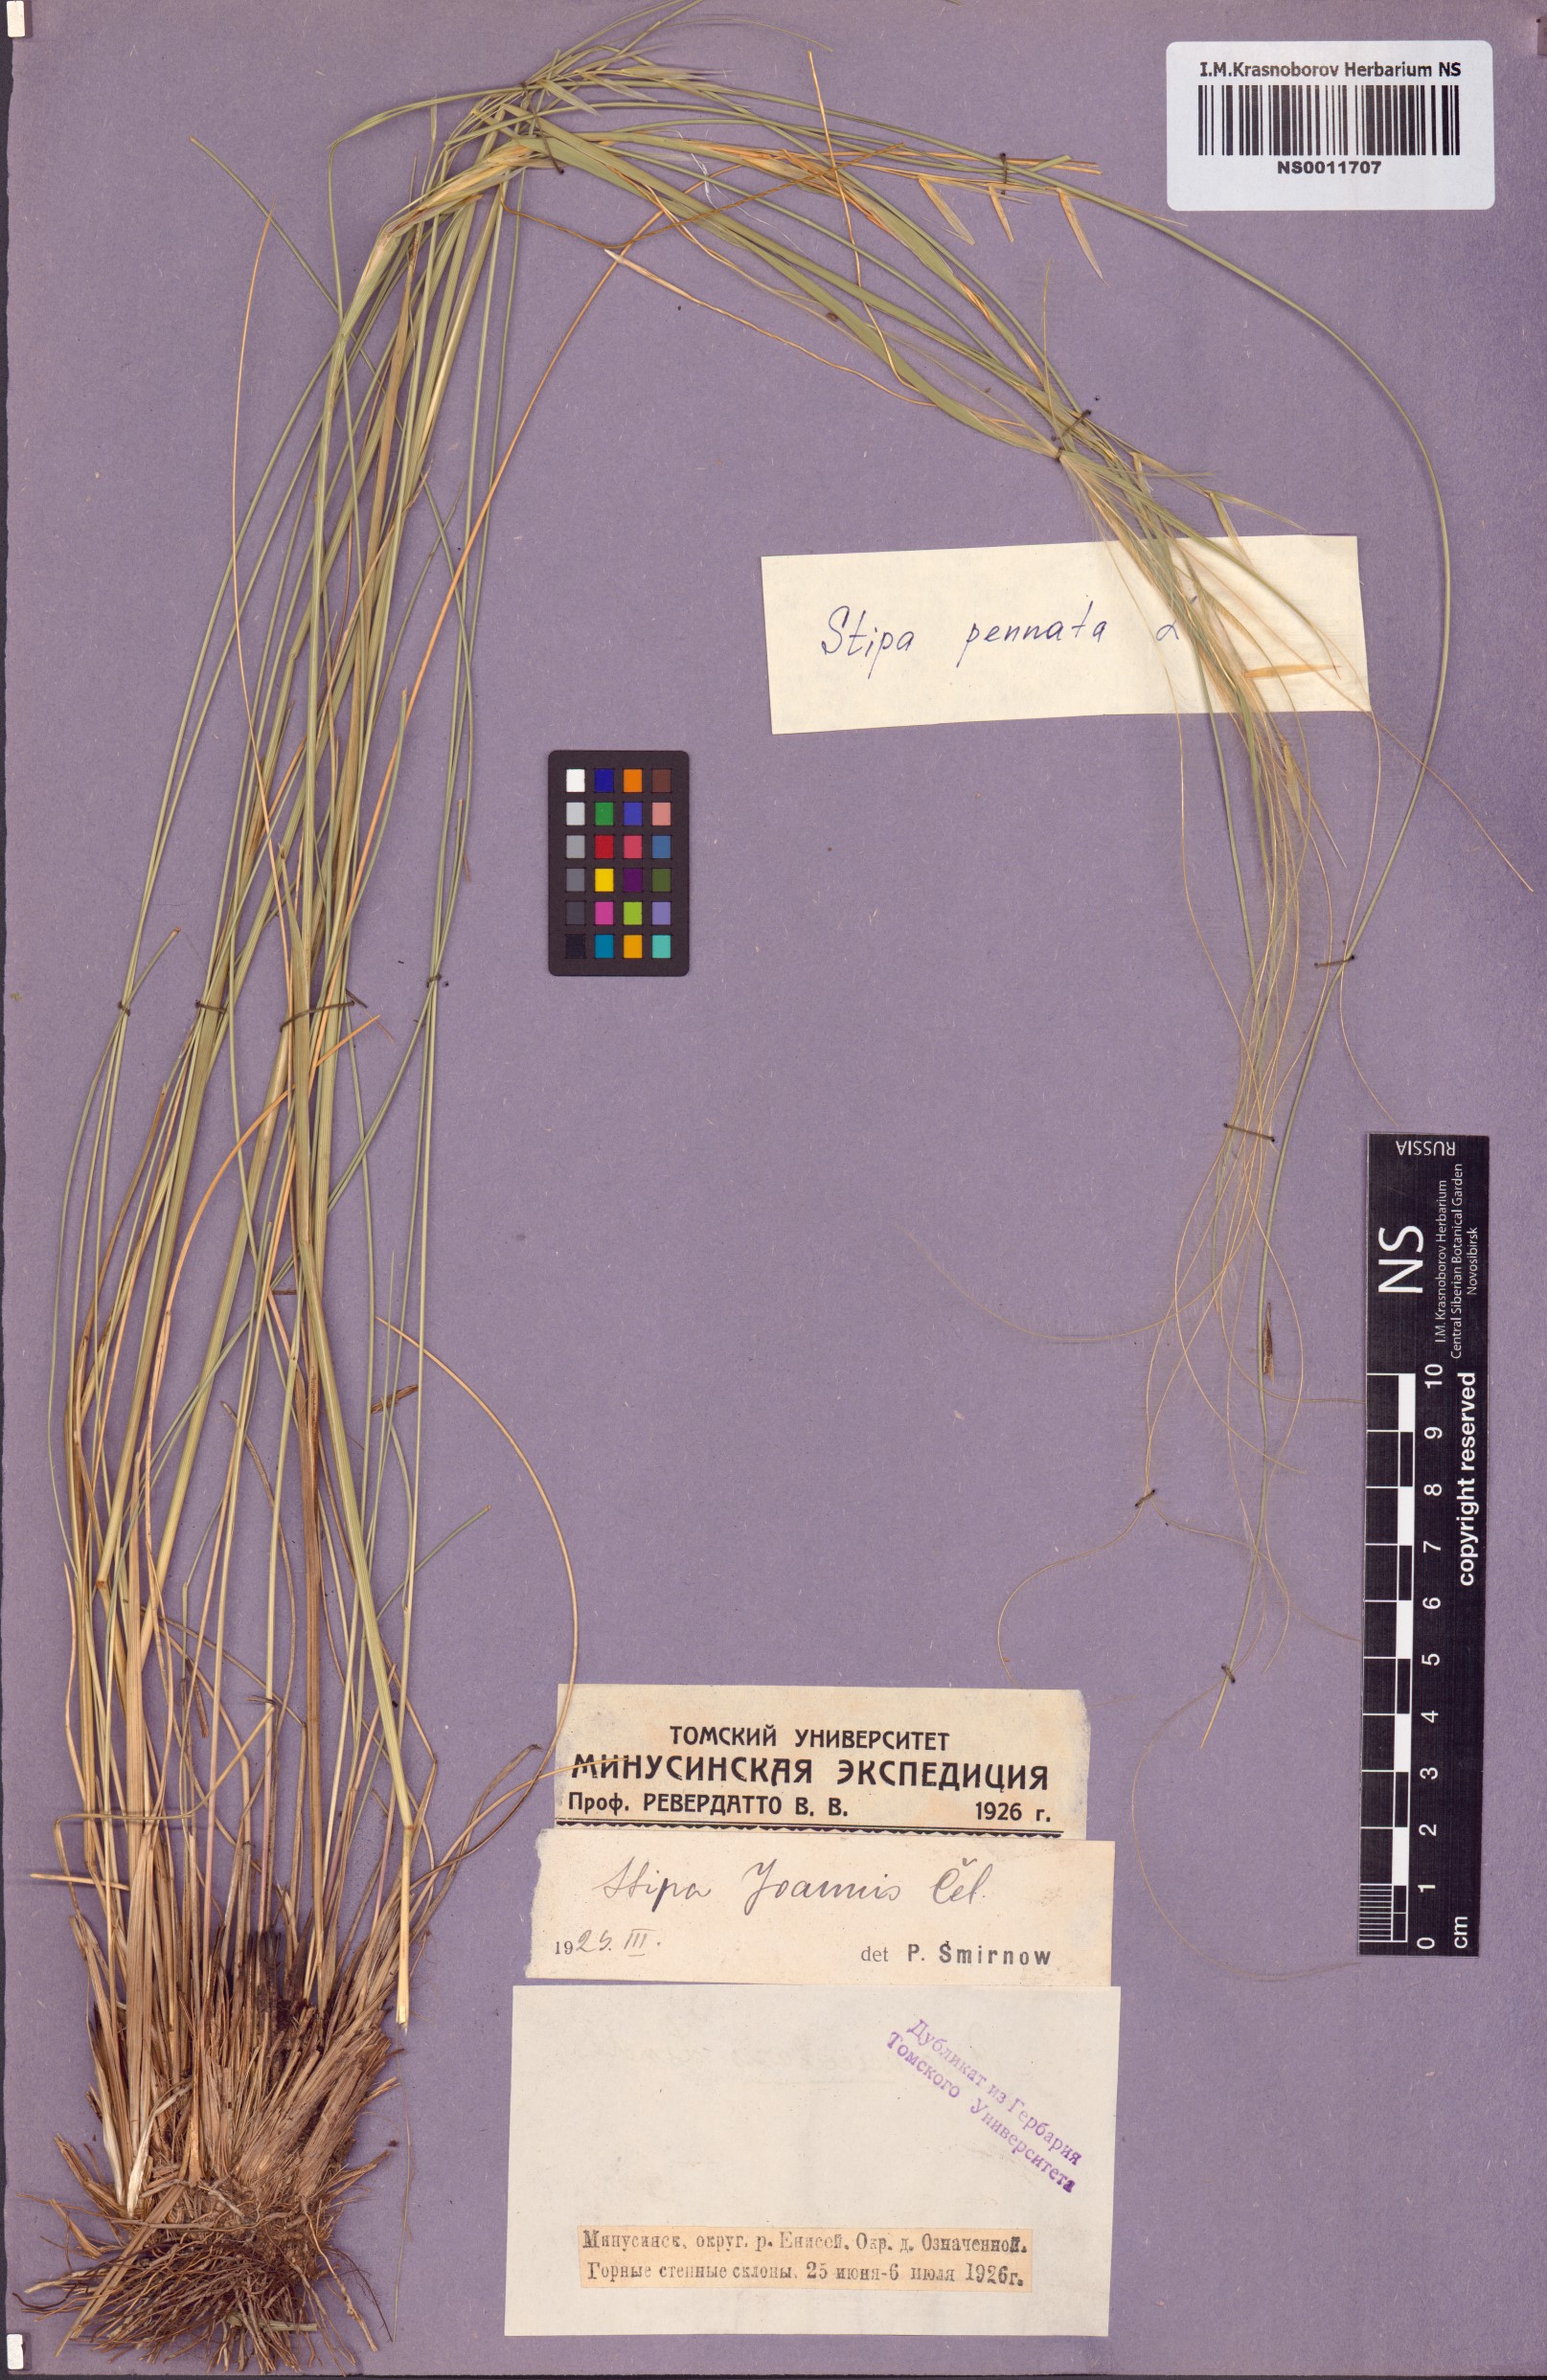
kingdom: Plantae
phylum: Tracheophyta
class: Liliopsida
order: Poales
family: Poaceae
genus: Stipa
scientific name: Stipa pennata
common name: European feather grass
